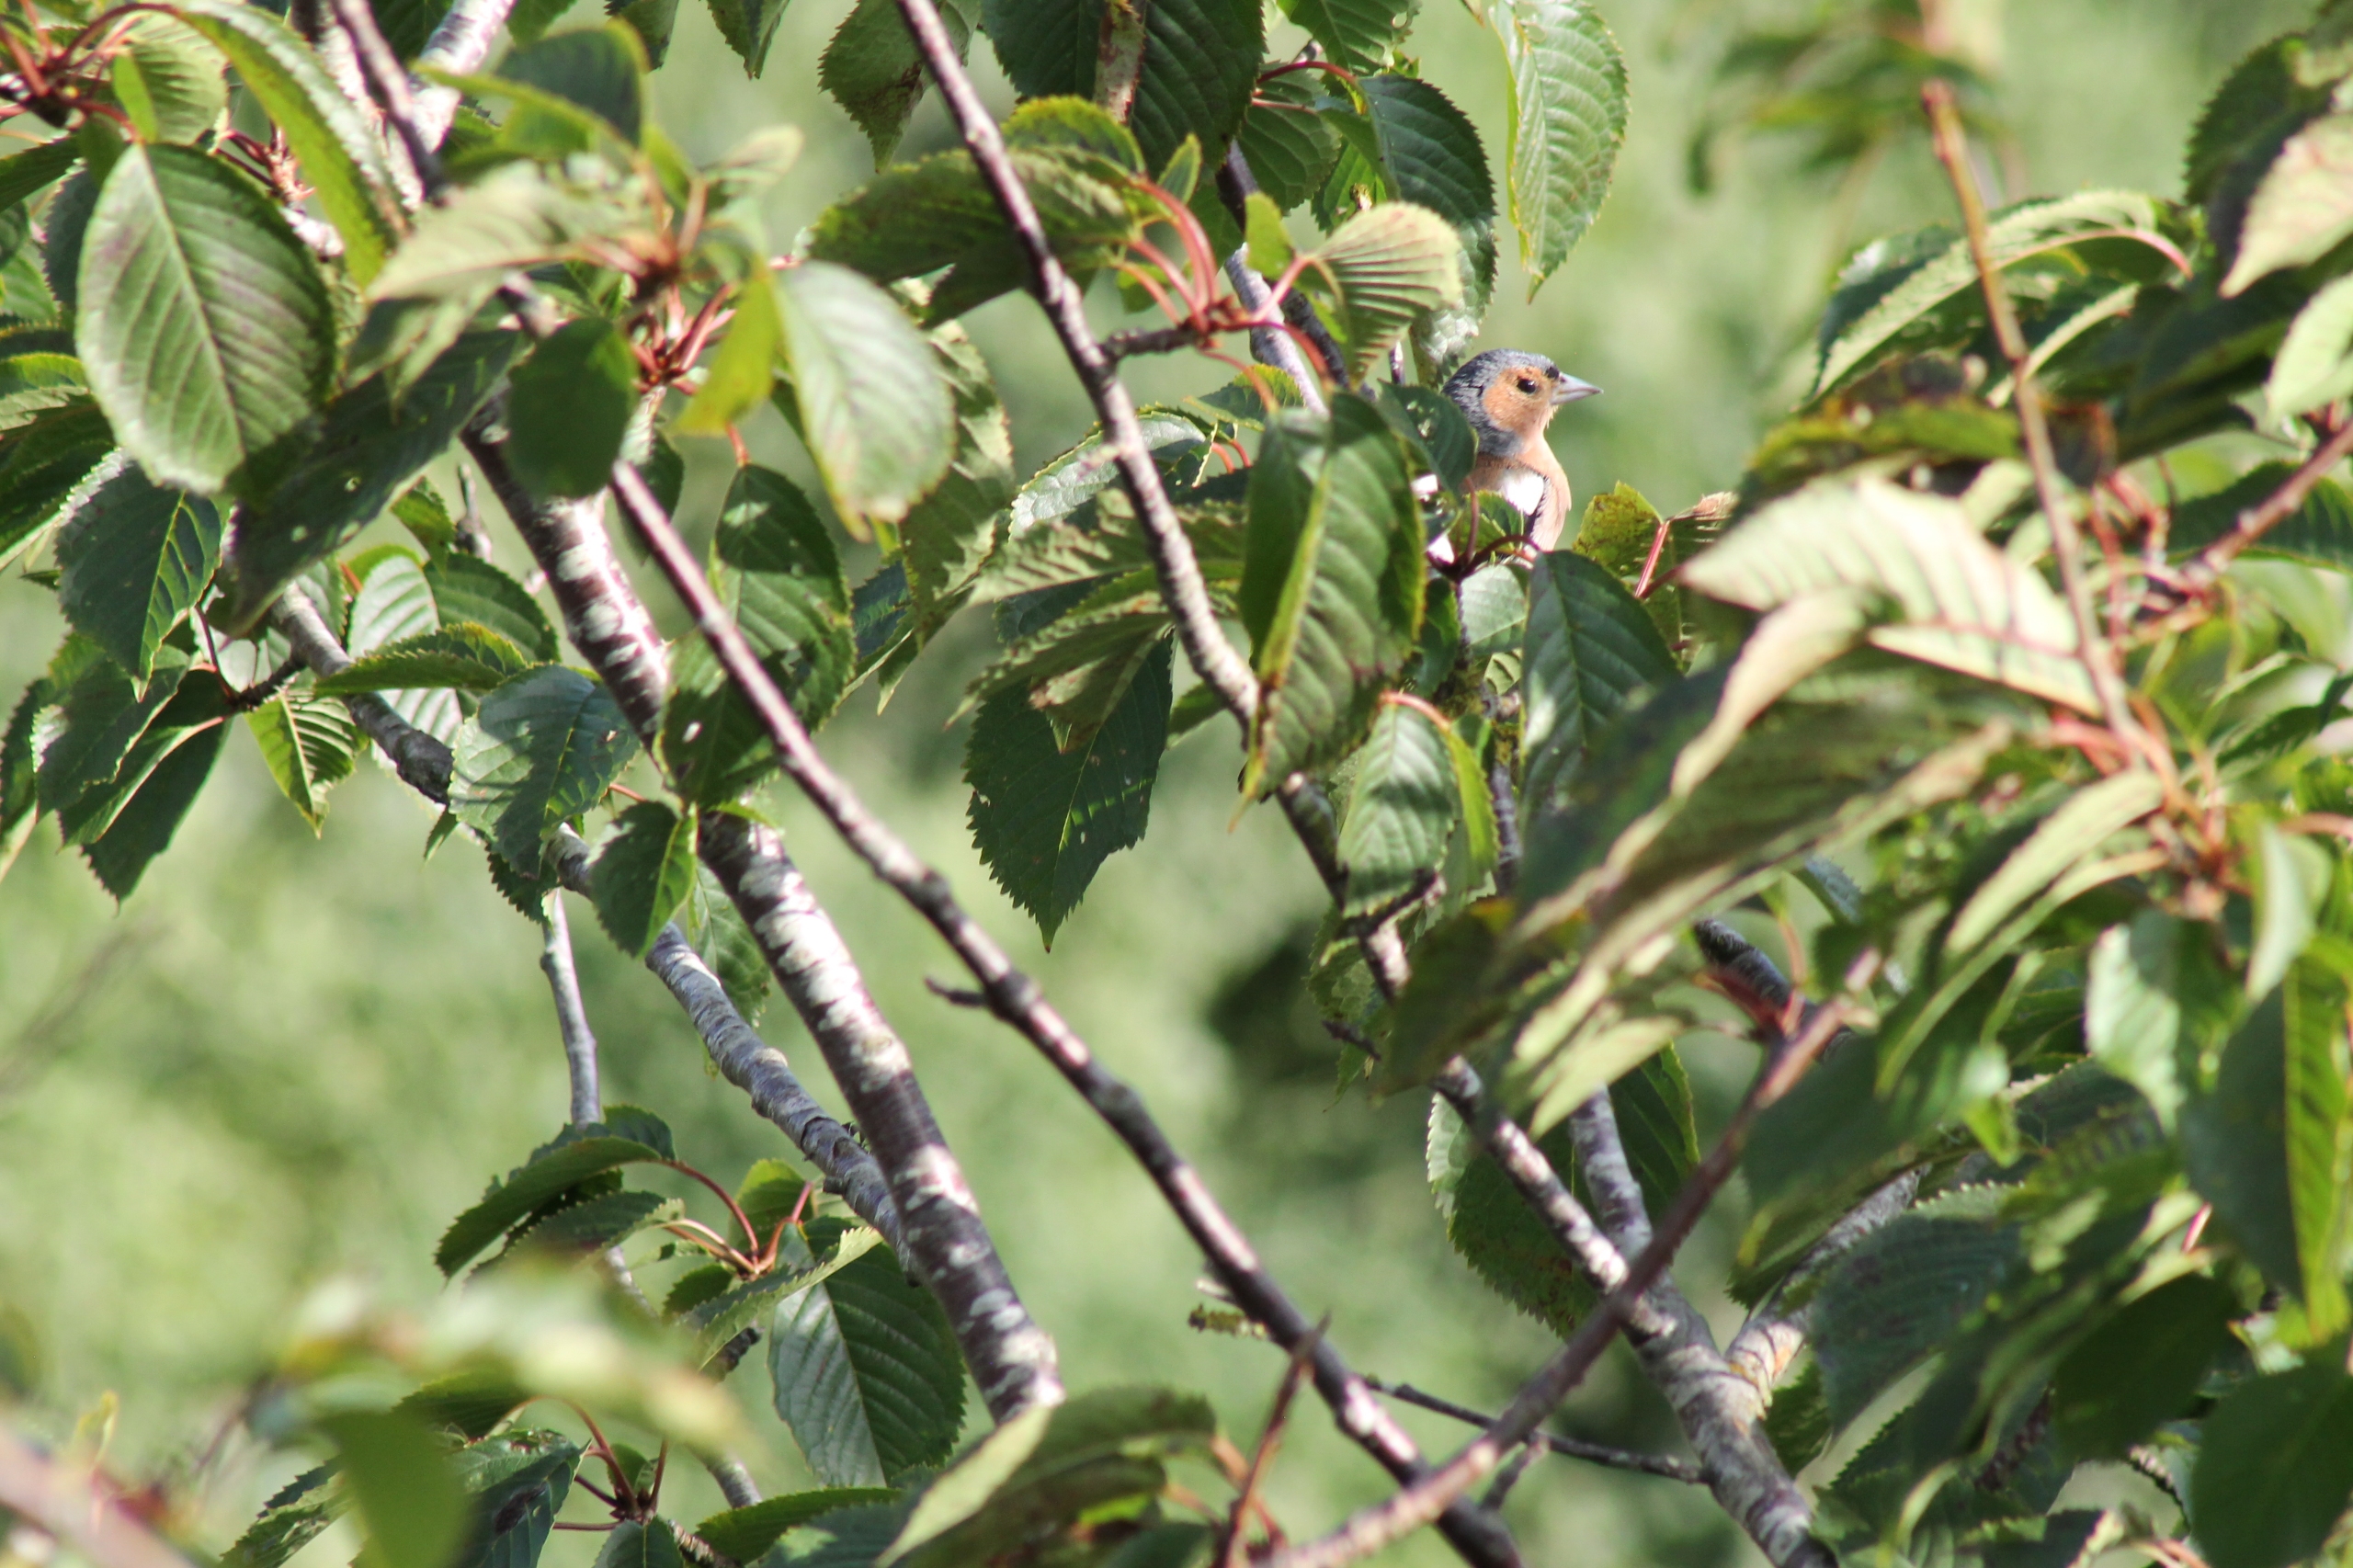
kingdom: Animalia
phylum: Chordata
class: Aves
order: Passeriformes
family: Fringillidae
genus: Fringilla
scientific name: Fringilla coelebs
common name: Bogfinke
